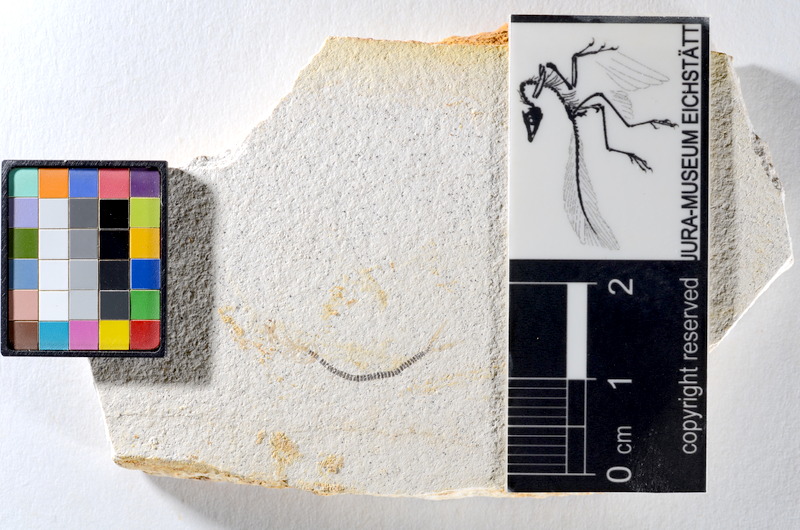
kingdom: Animalia
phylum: Chordata
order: Salmoniformes
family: Orthogonikleithridae
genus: Orthogonikleithrus
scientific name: Orthogonikleithrus hoelli
